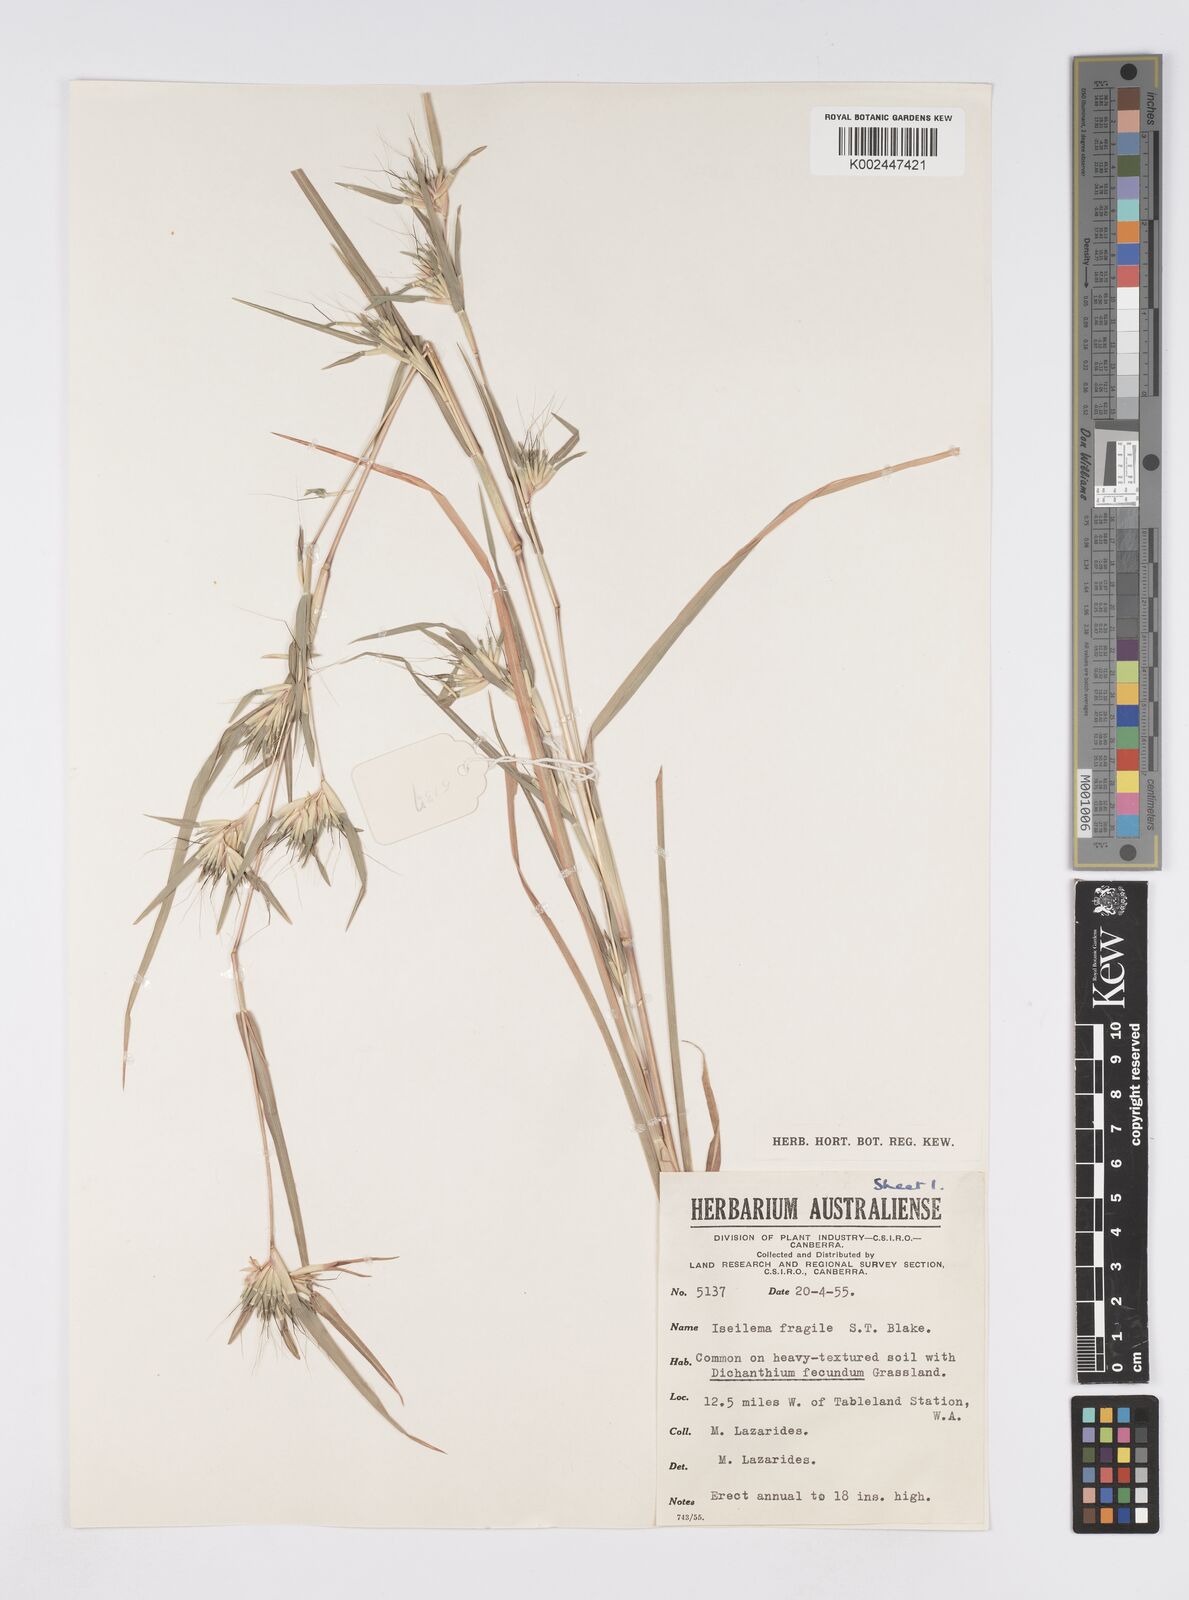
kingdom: Plantae
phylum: Tracheophyta
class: Liliopsida
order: Poales
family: Poaceae
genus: Iseilema
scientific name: Iseilema fragile
